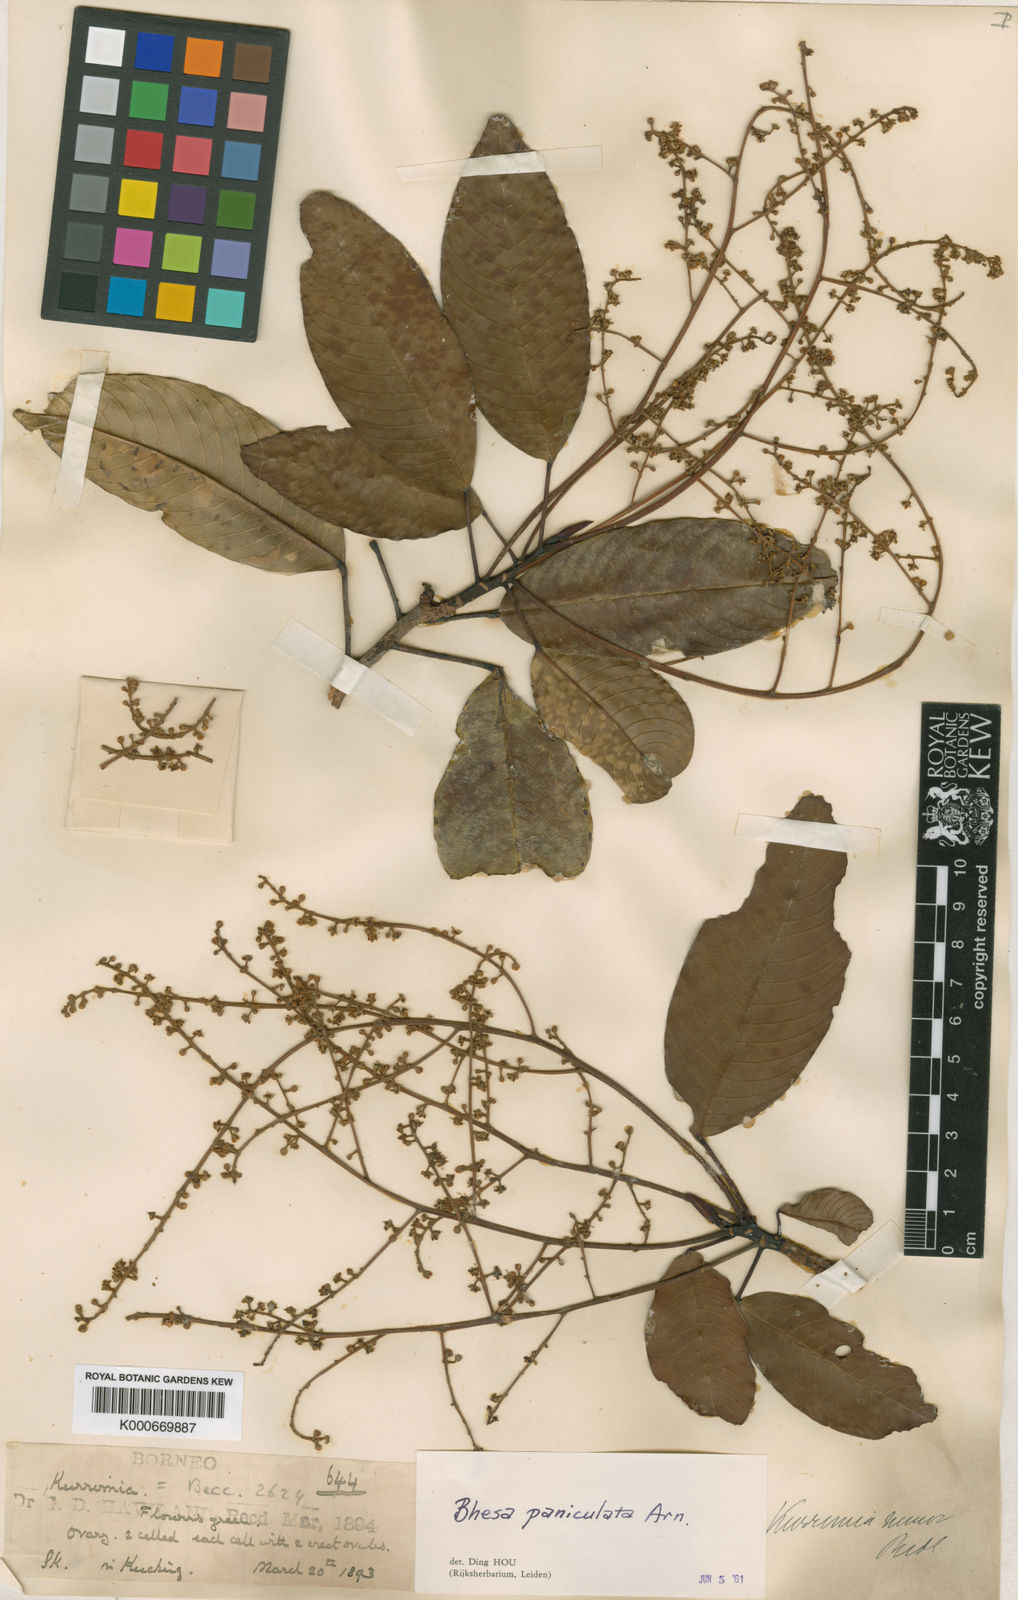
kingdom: Plantae
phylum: Tracheophyta
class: Magnoliopsida
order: Malpighiales
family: Centroplacaceae
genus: Bhesa
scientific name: Bhesa paniculata
